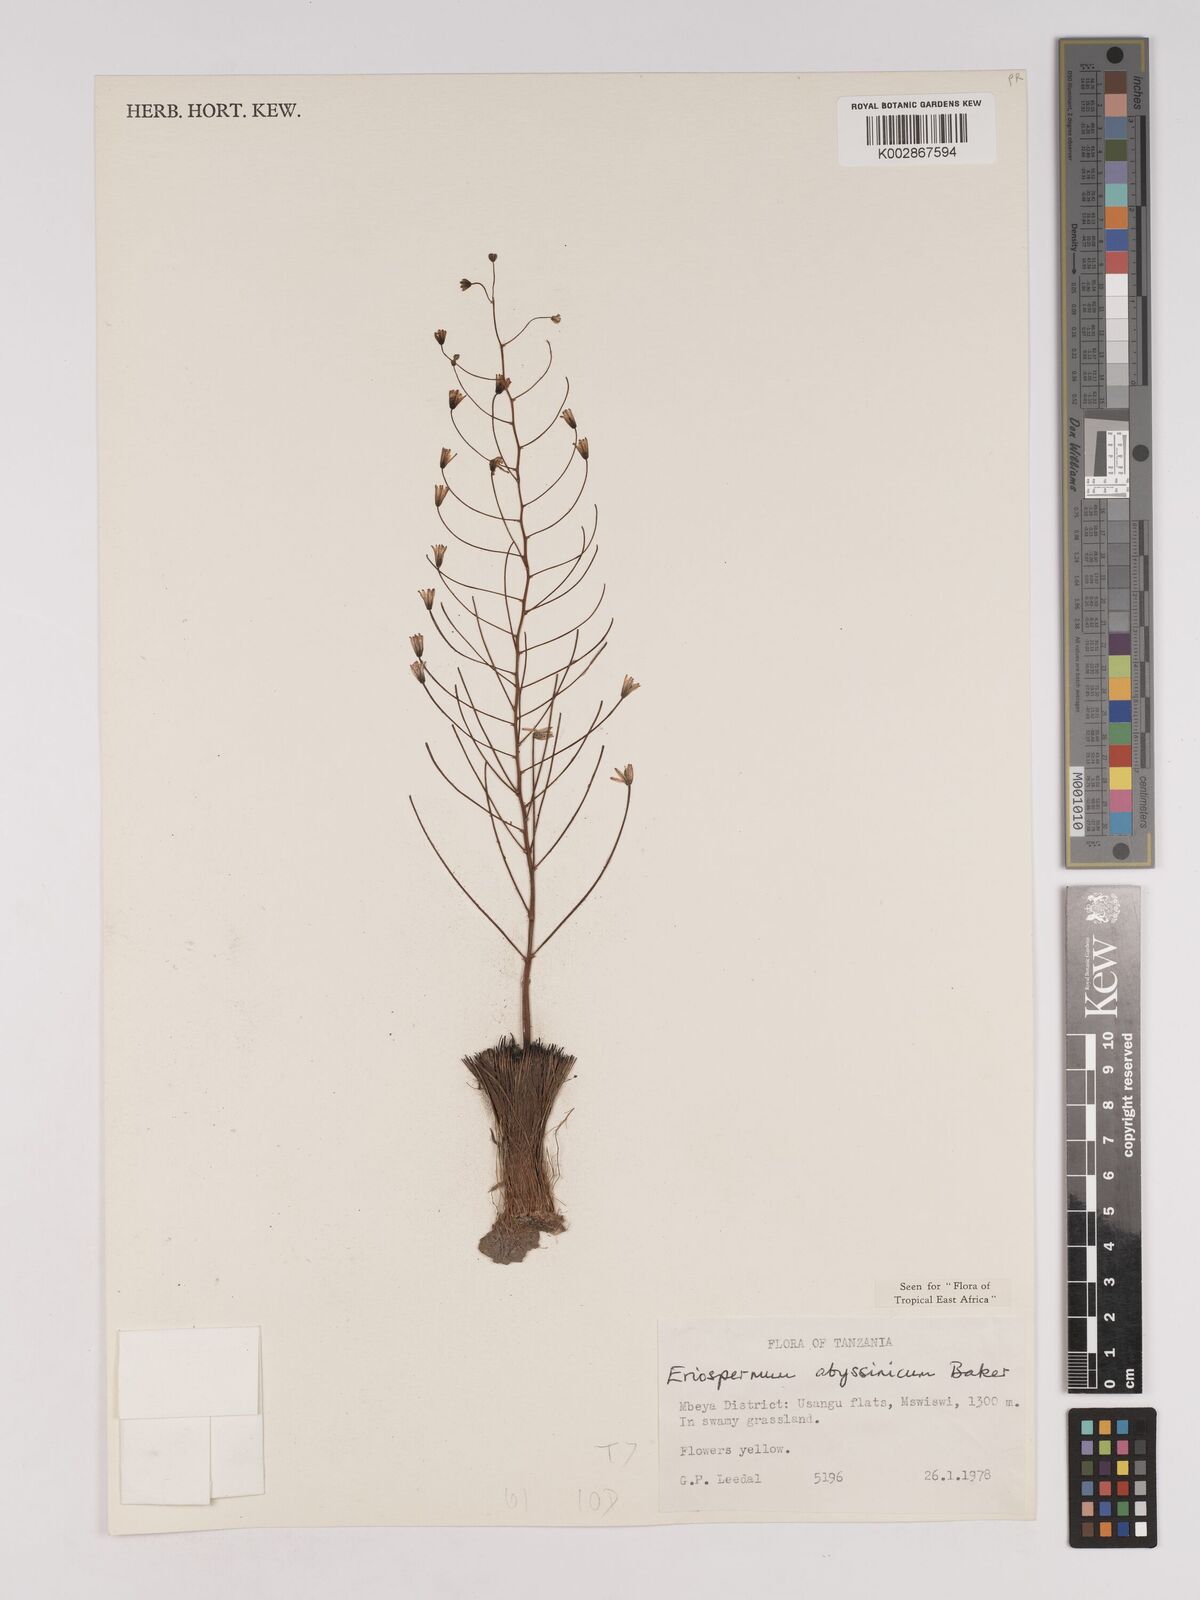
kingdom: Plantae
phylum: Tracheophyta
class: Liliopsida
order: Asparagales
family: Asparagaceae
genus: Eriospermum
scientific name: Eriospermum abyssinicum
